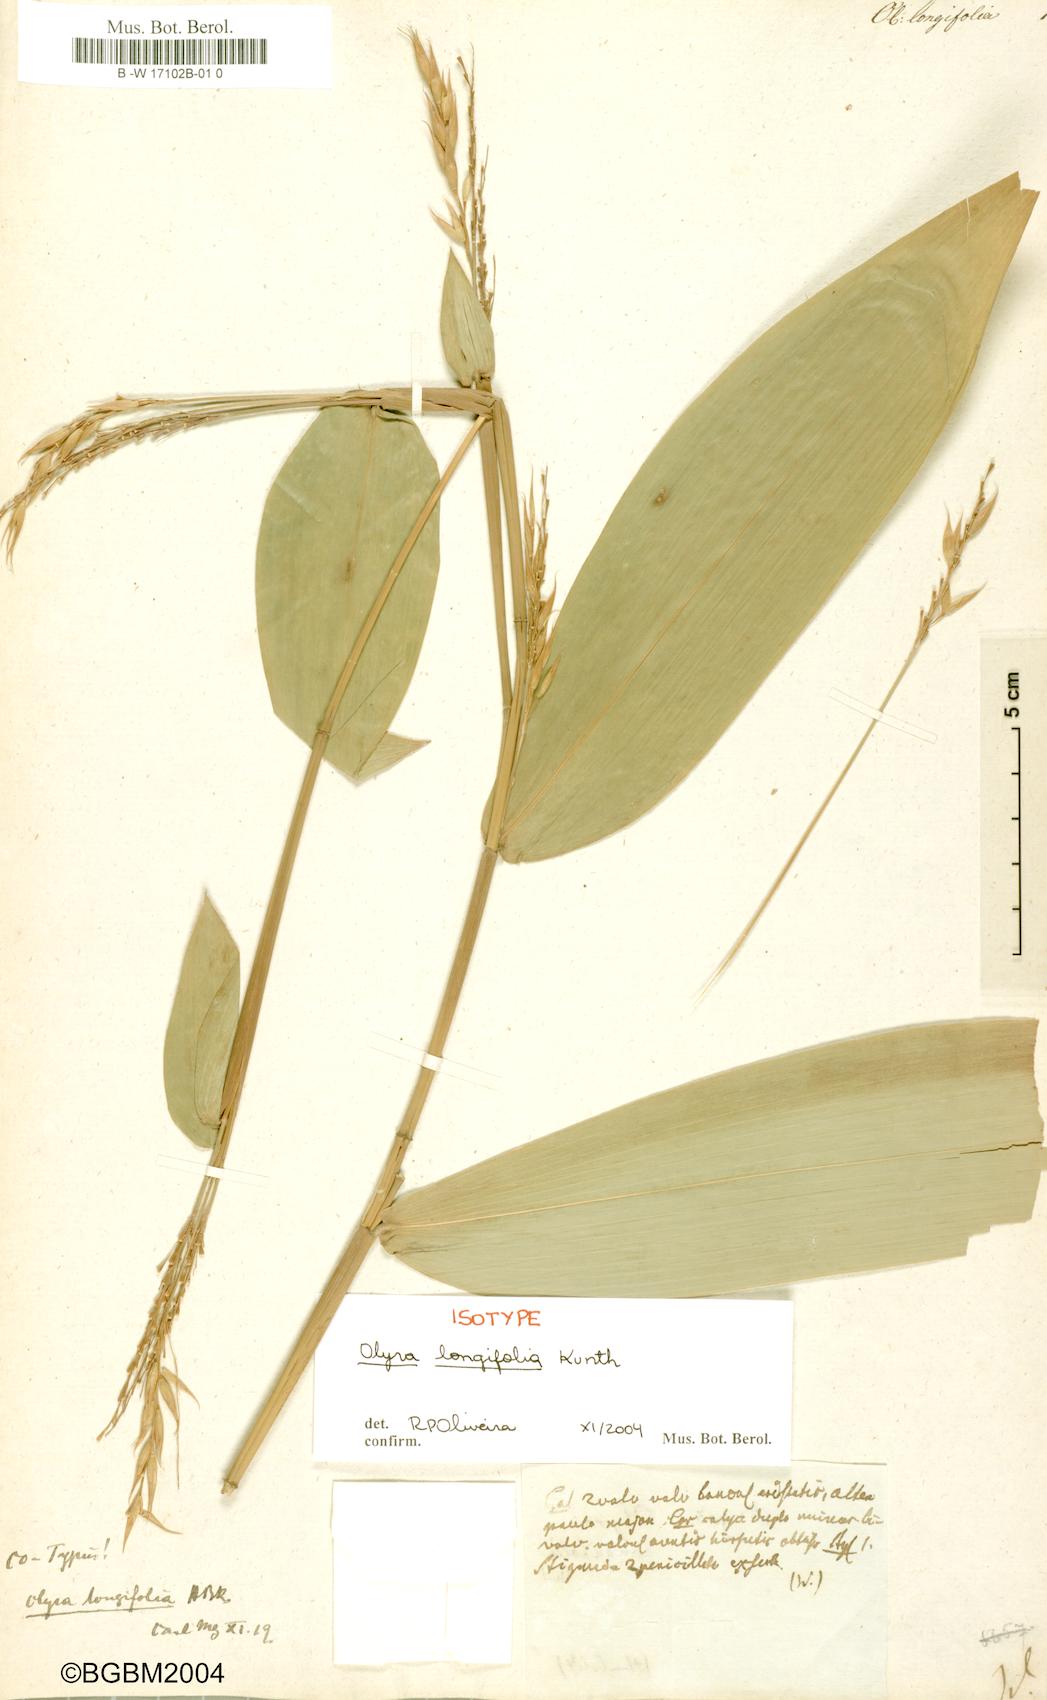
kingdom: Plantae
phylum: Tracheophyta
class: Liliopsida
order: Poales
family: Poaceae
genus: Olyra
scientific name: Olyra longifolia
